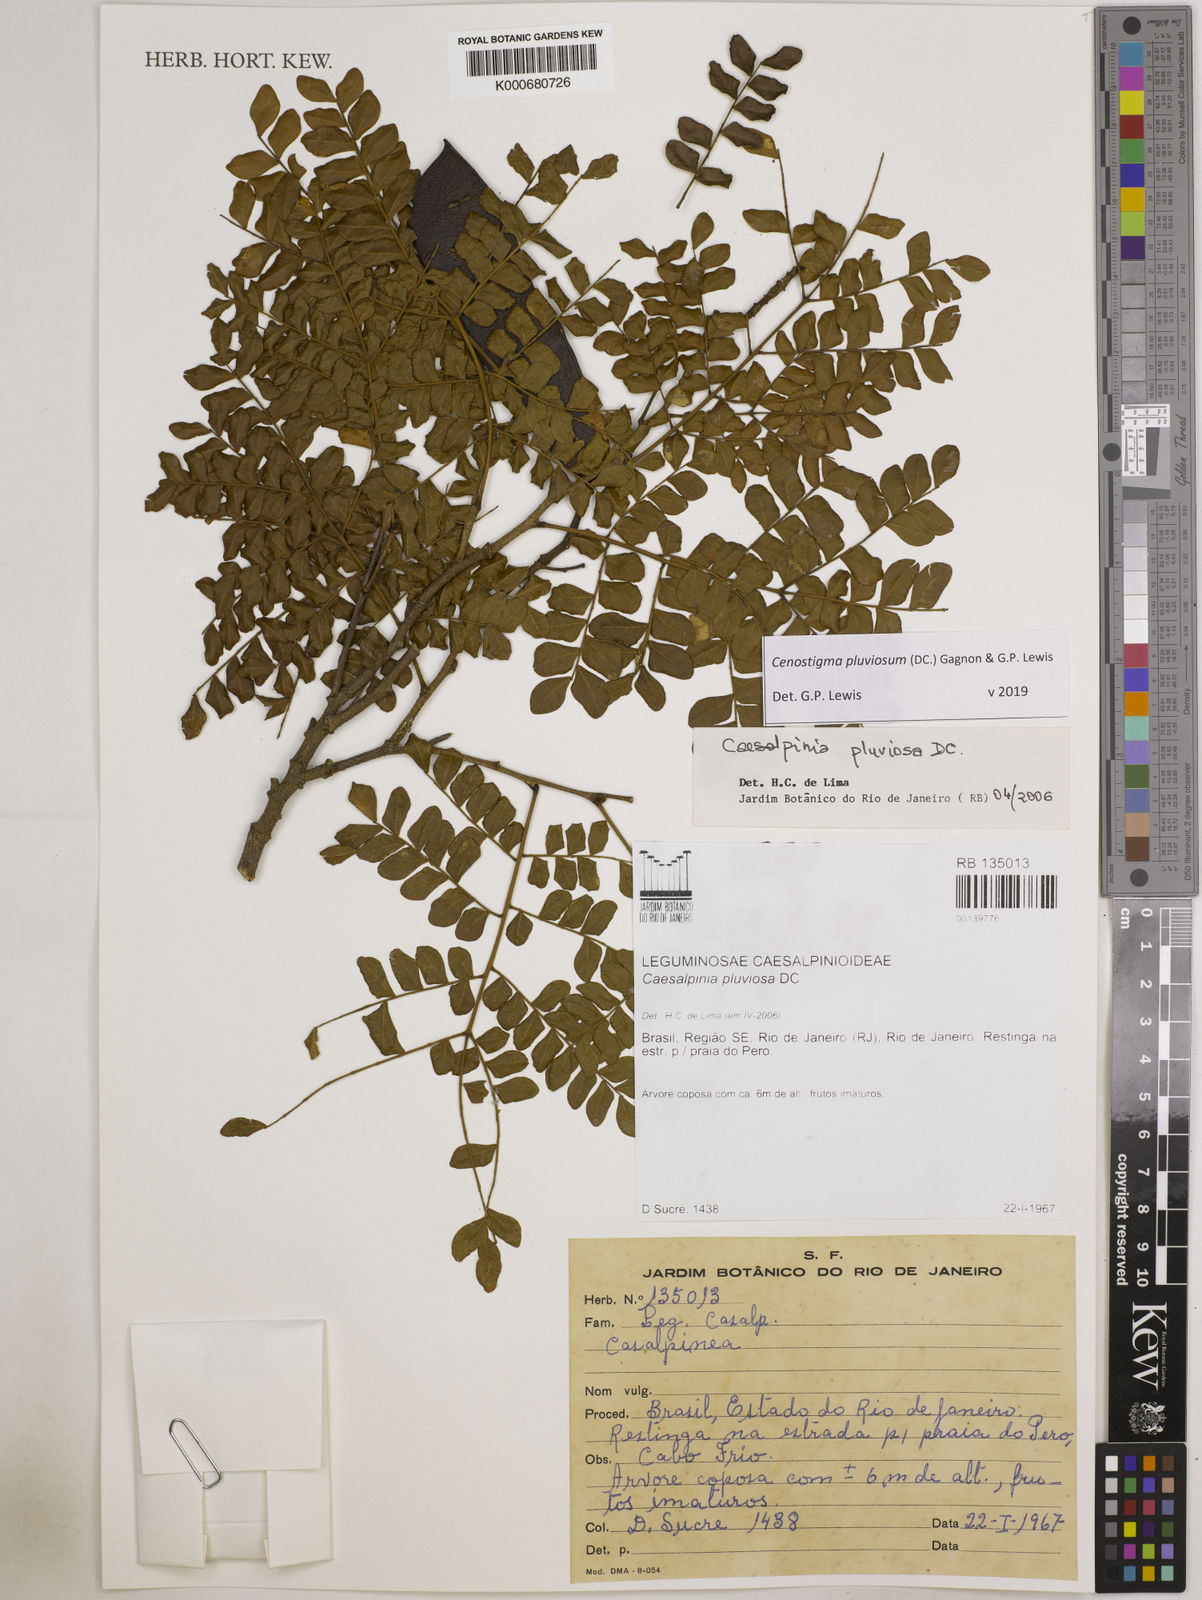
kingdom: Plantae
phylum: Tracheophyta
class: Magnoliopsida
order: Fabales
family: Fabaceae
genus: Cenostigma
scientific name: Cenostigma pluviosum
